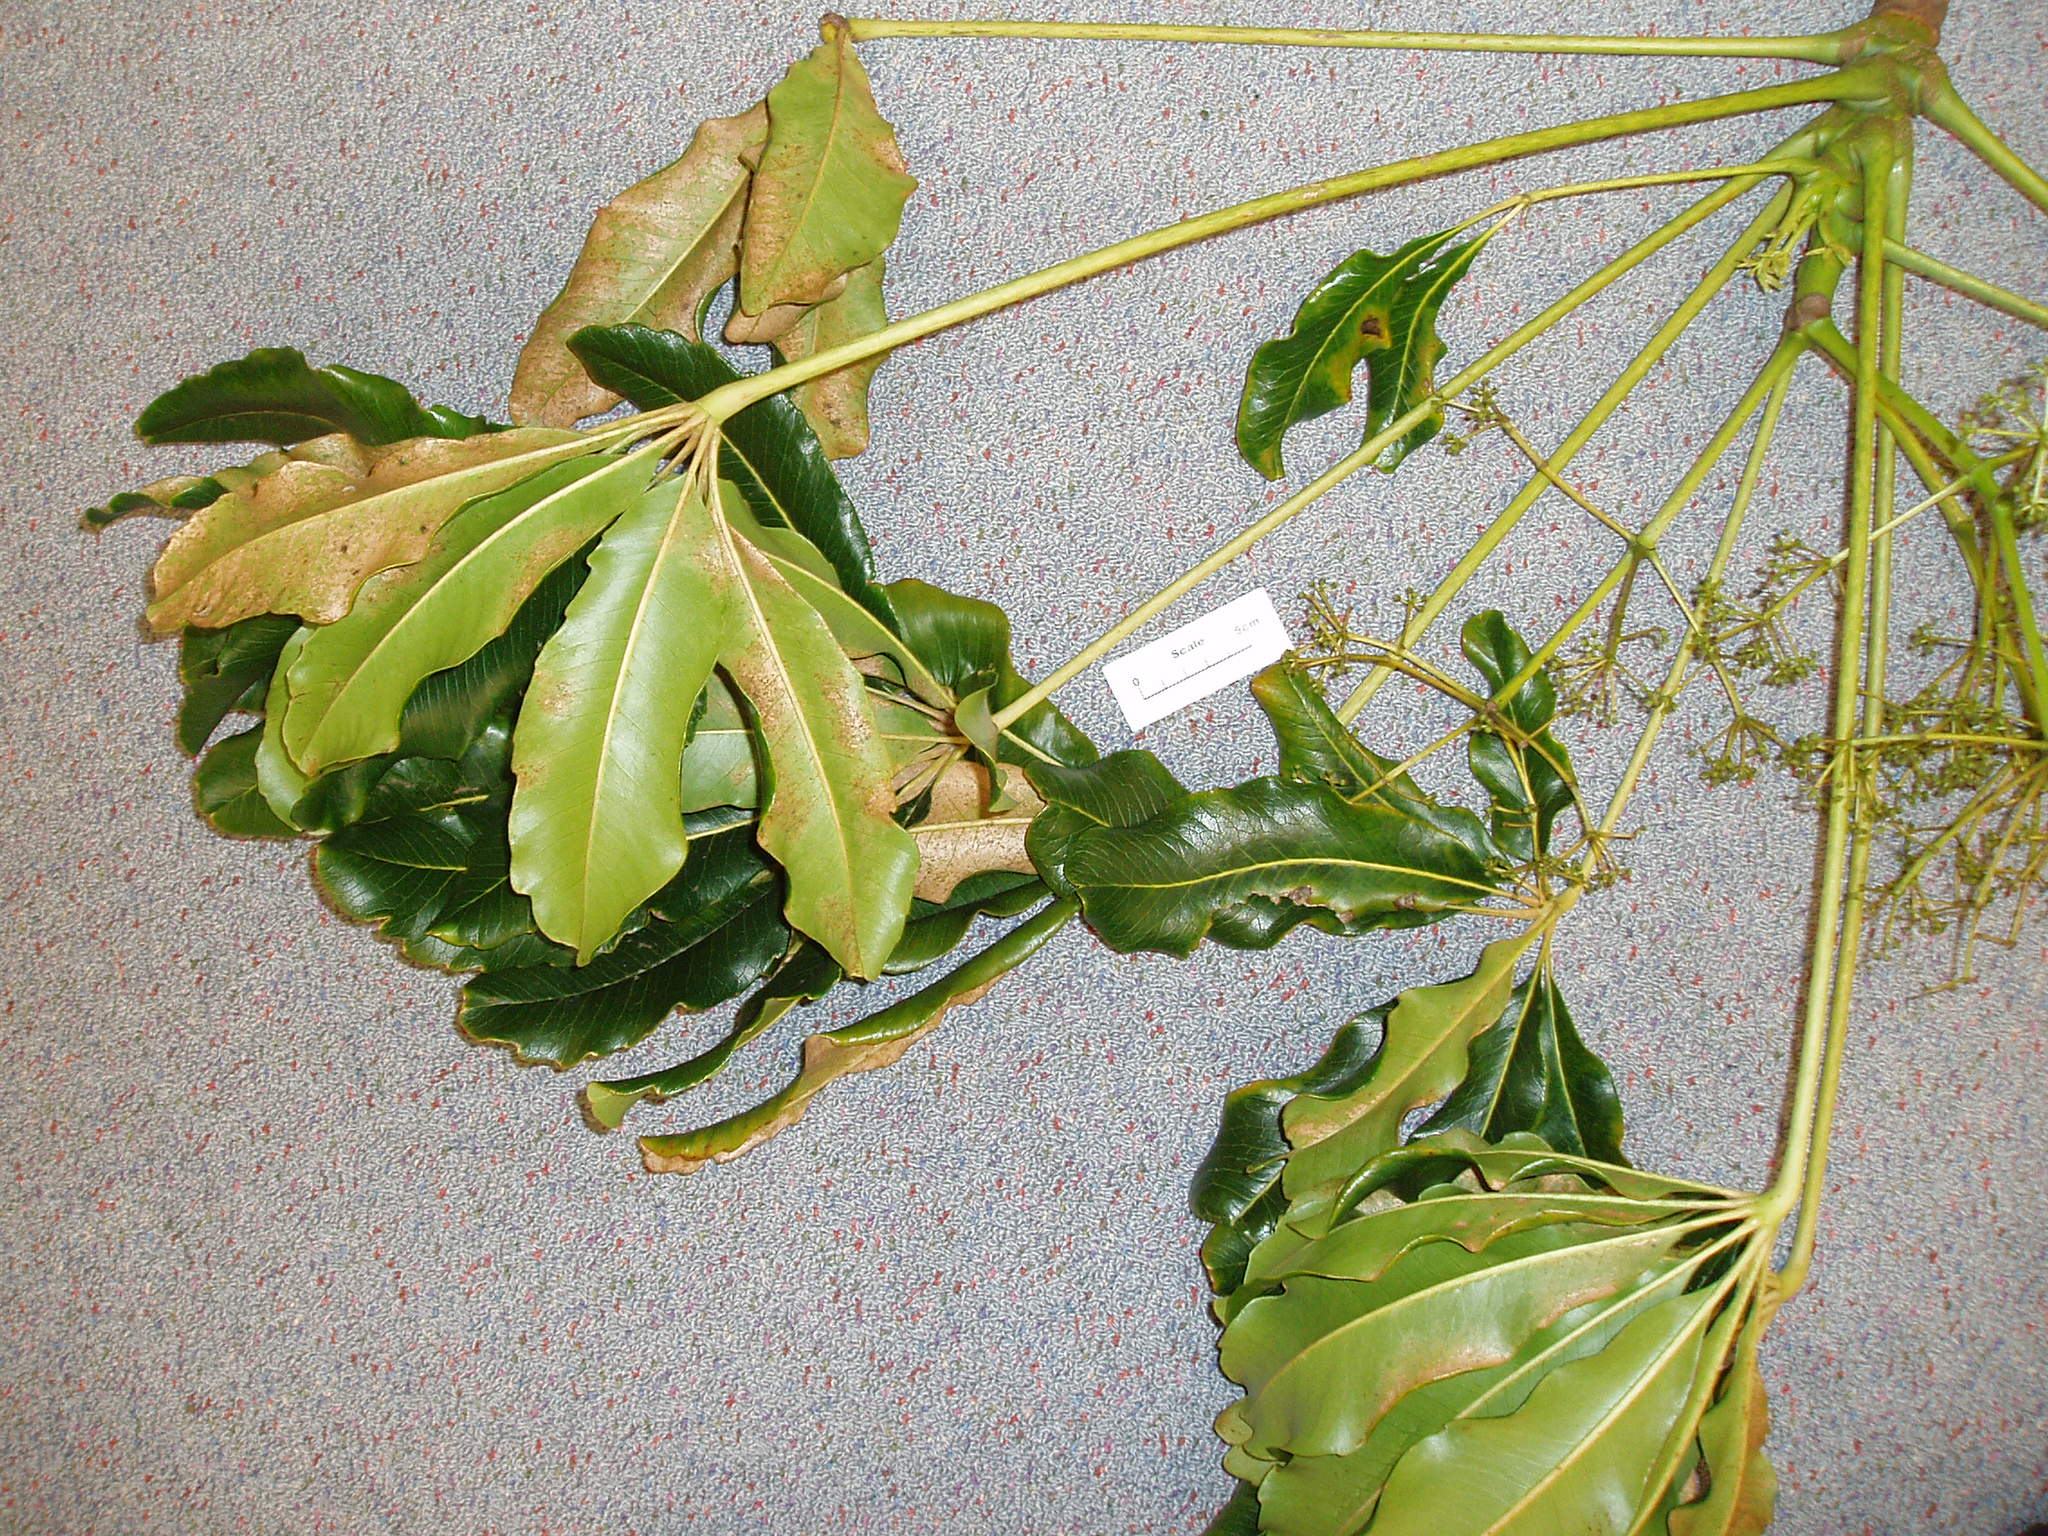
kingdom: Plantae
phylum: Tracheophyta
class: Magnoliopsida
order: Apiales
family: Araliaceae
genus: Schefflera
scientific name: Schefflera
